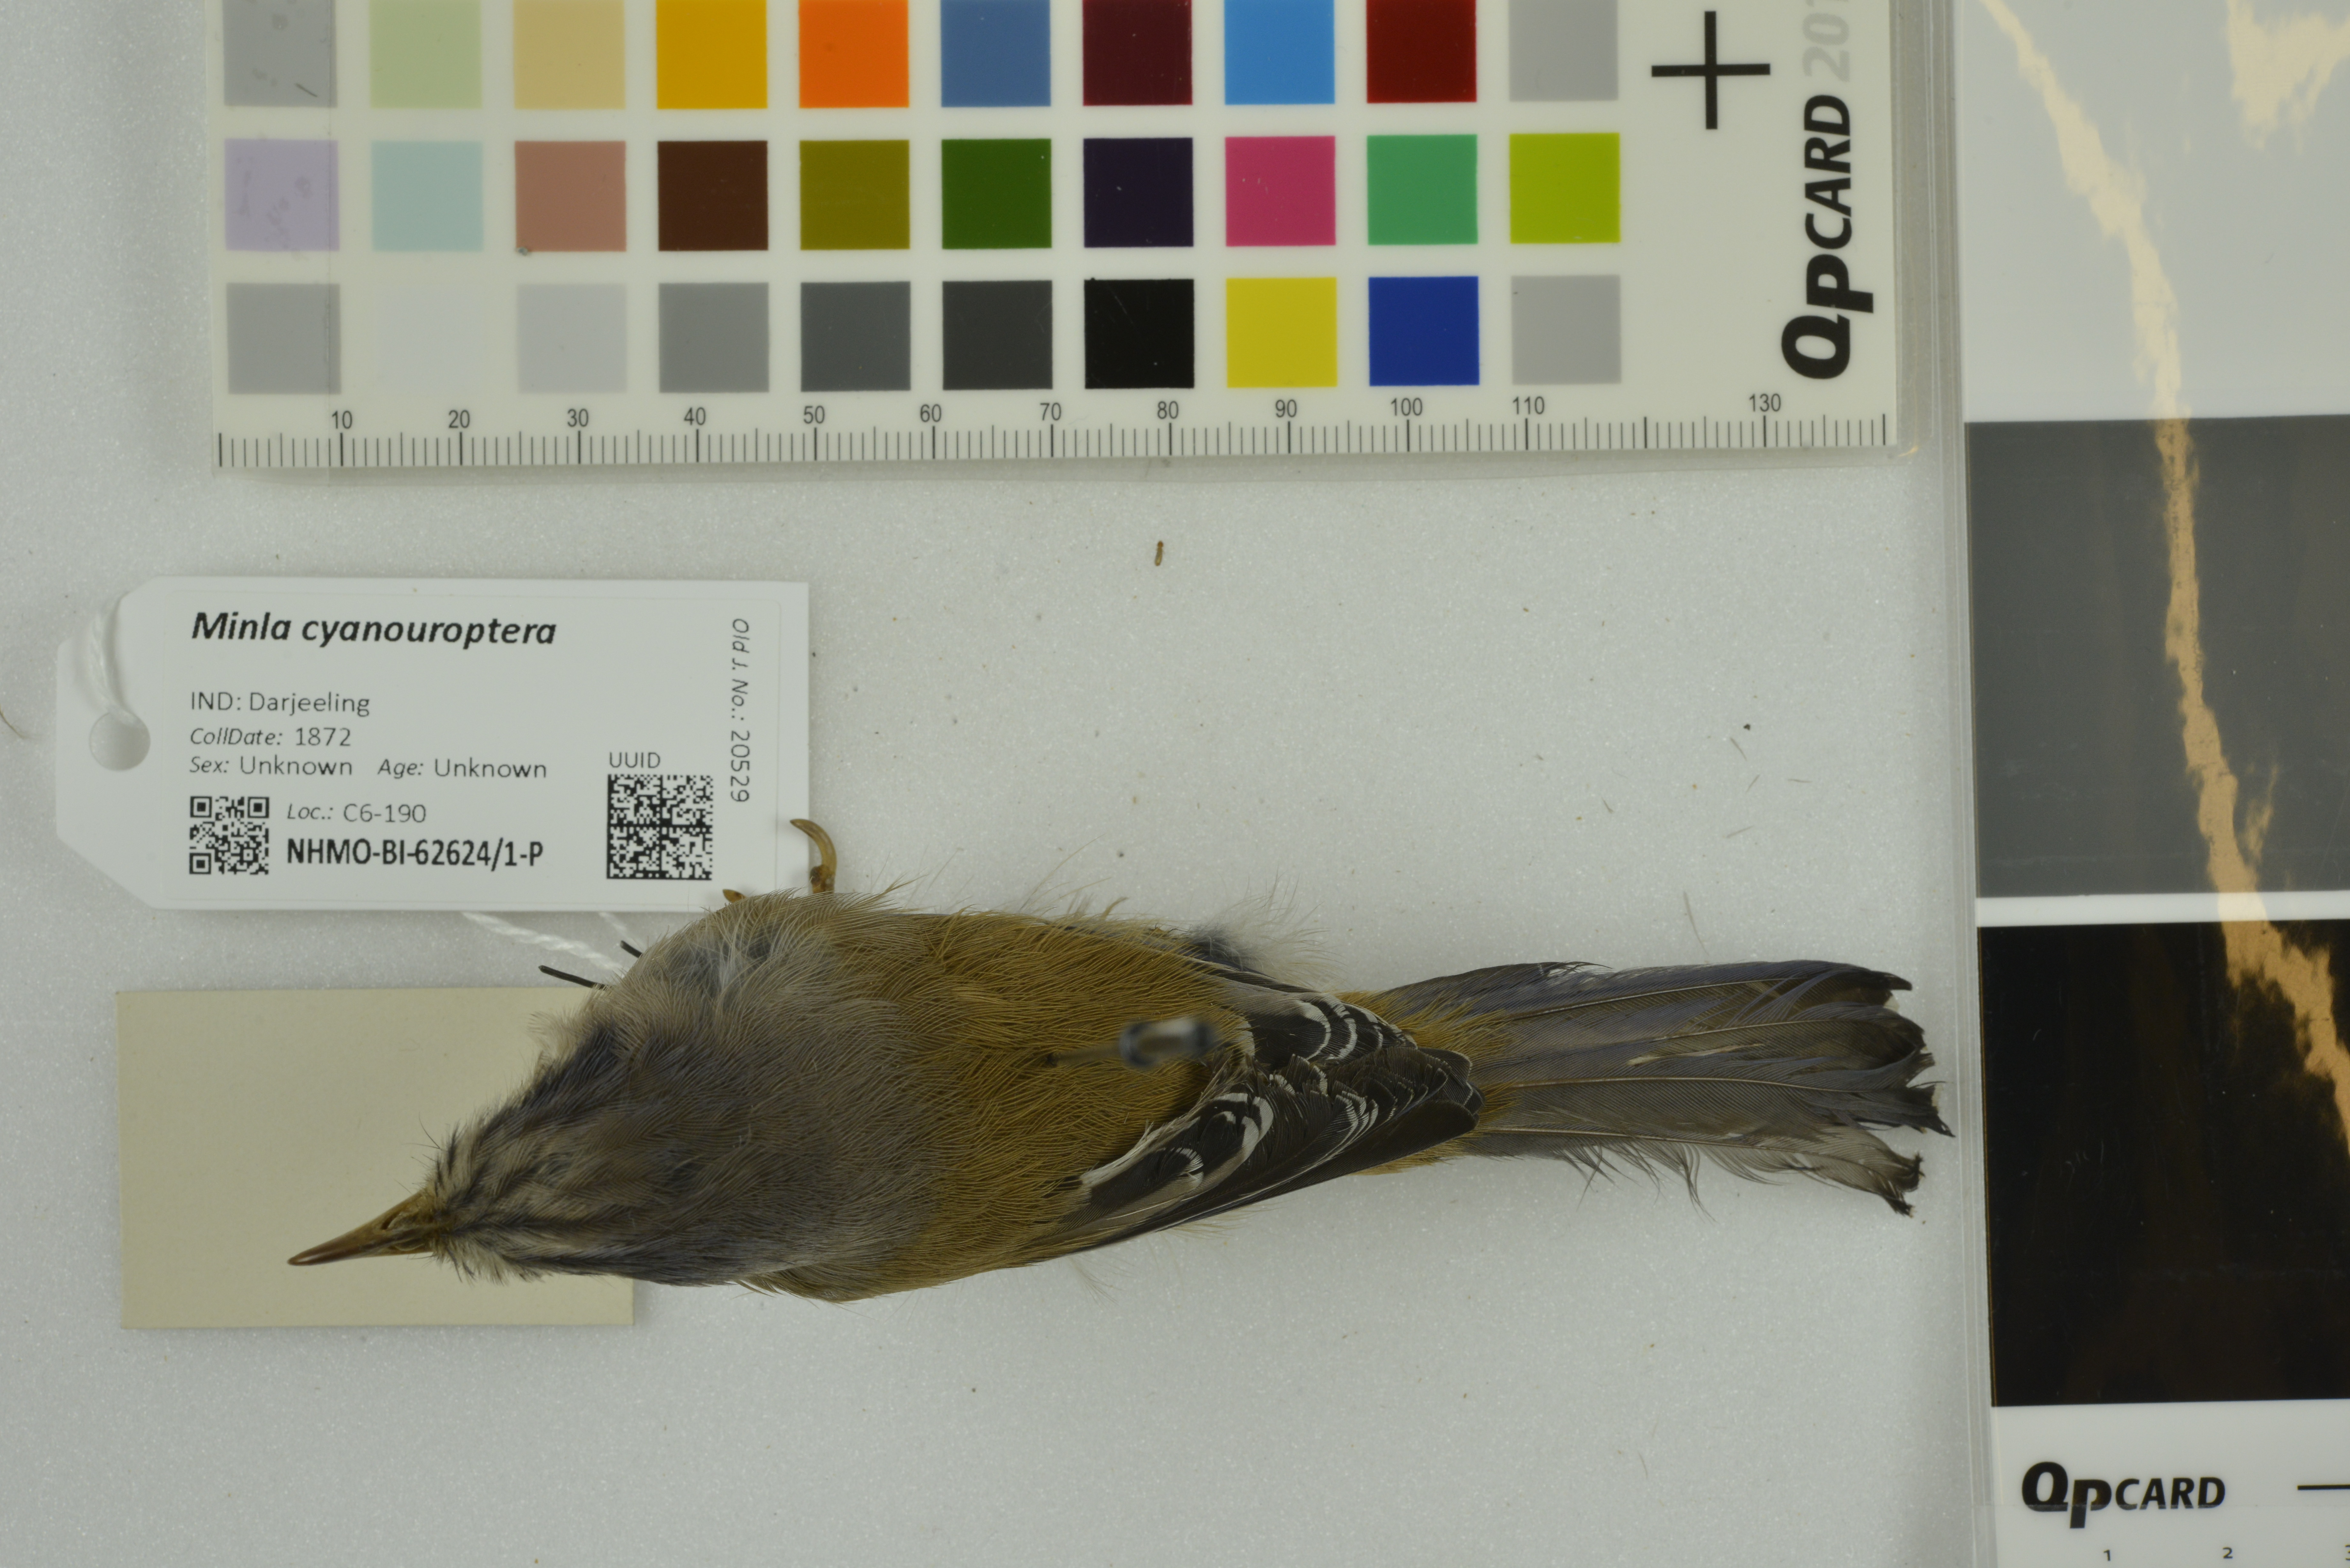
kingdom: Animalia
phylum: Chordata
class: Aves
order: Passeriformes
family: Leiothrichidae
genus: Minla
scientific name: Minla cyanouroptera
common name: Blue-winged minla
